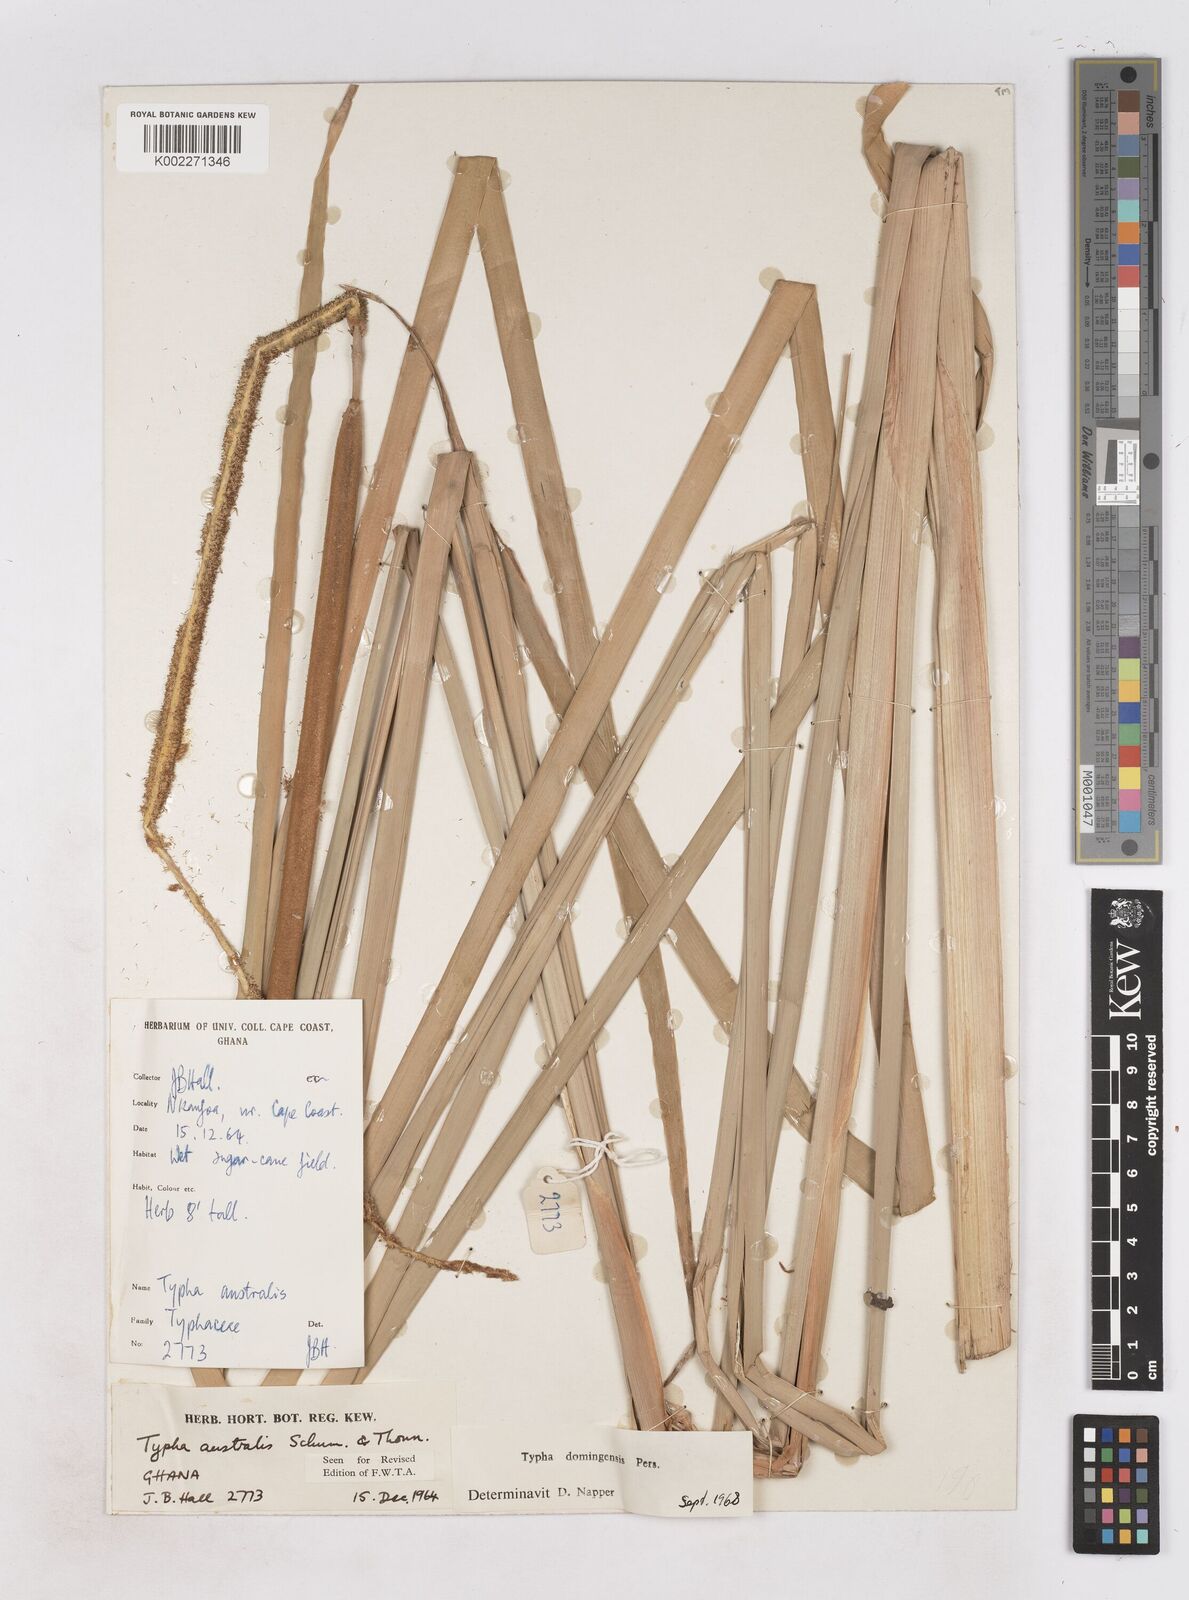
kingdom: Plantae
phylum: Tracheophyta
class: Liliopsida
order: Poales
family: Typhaceae
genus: Typha
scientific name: Typha domingensis
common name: Southern cattail
